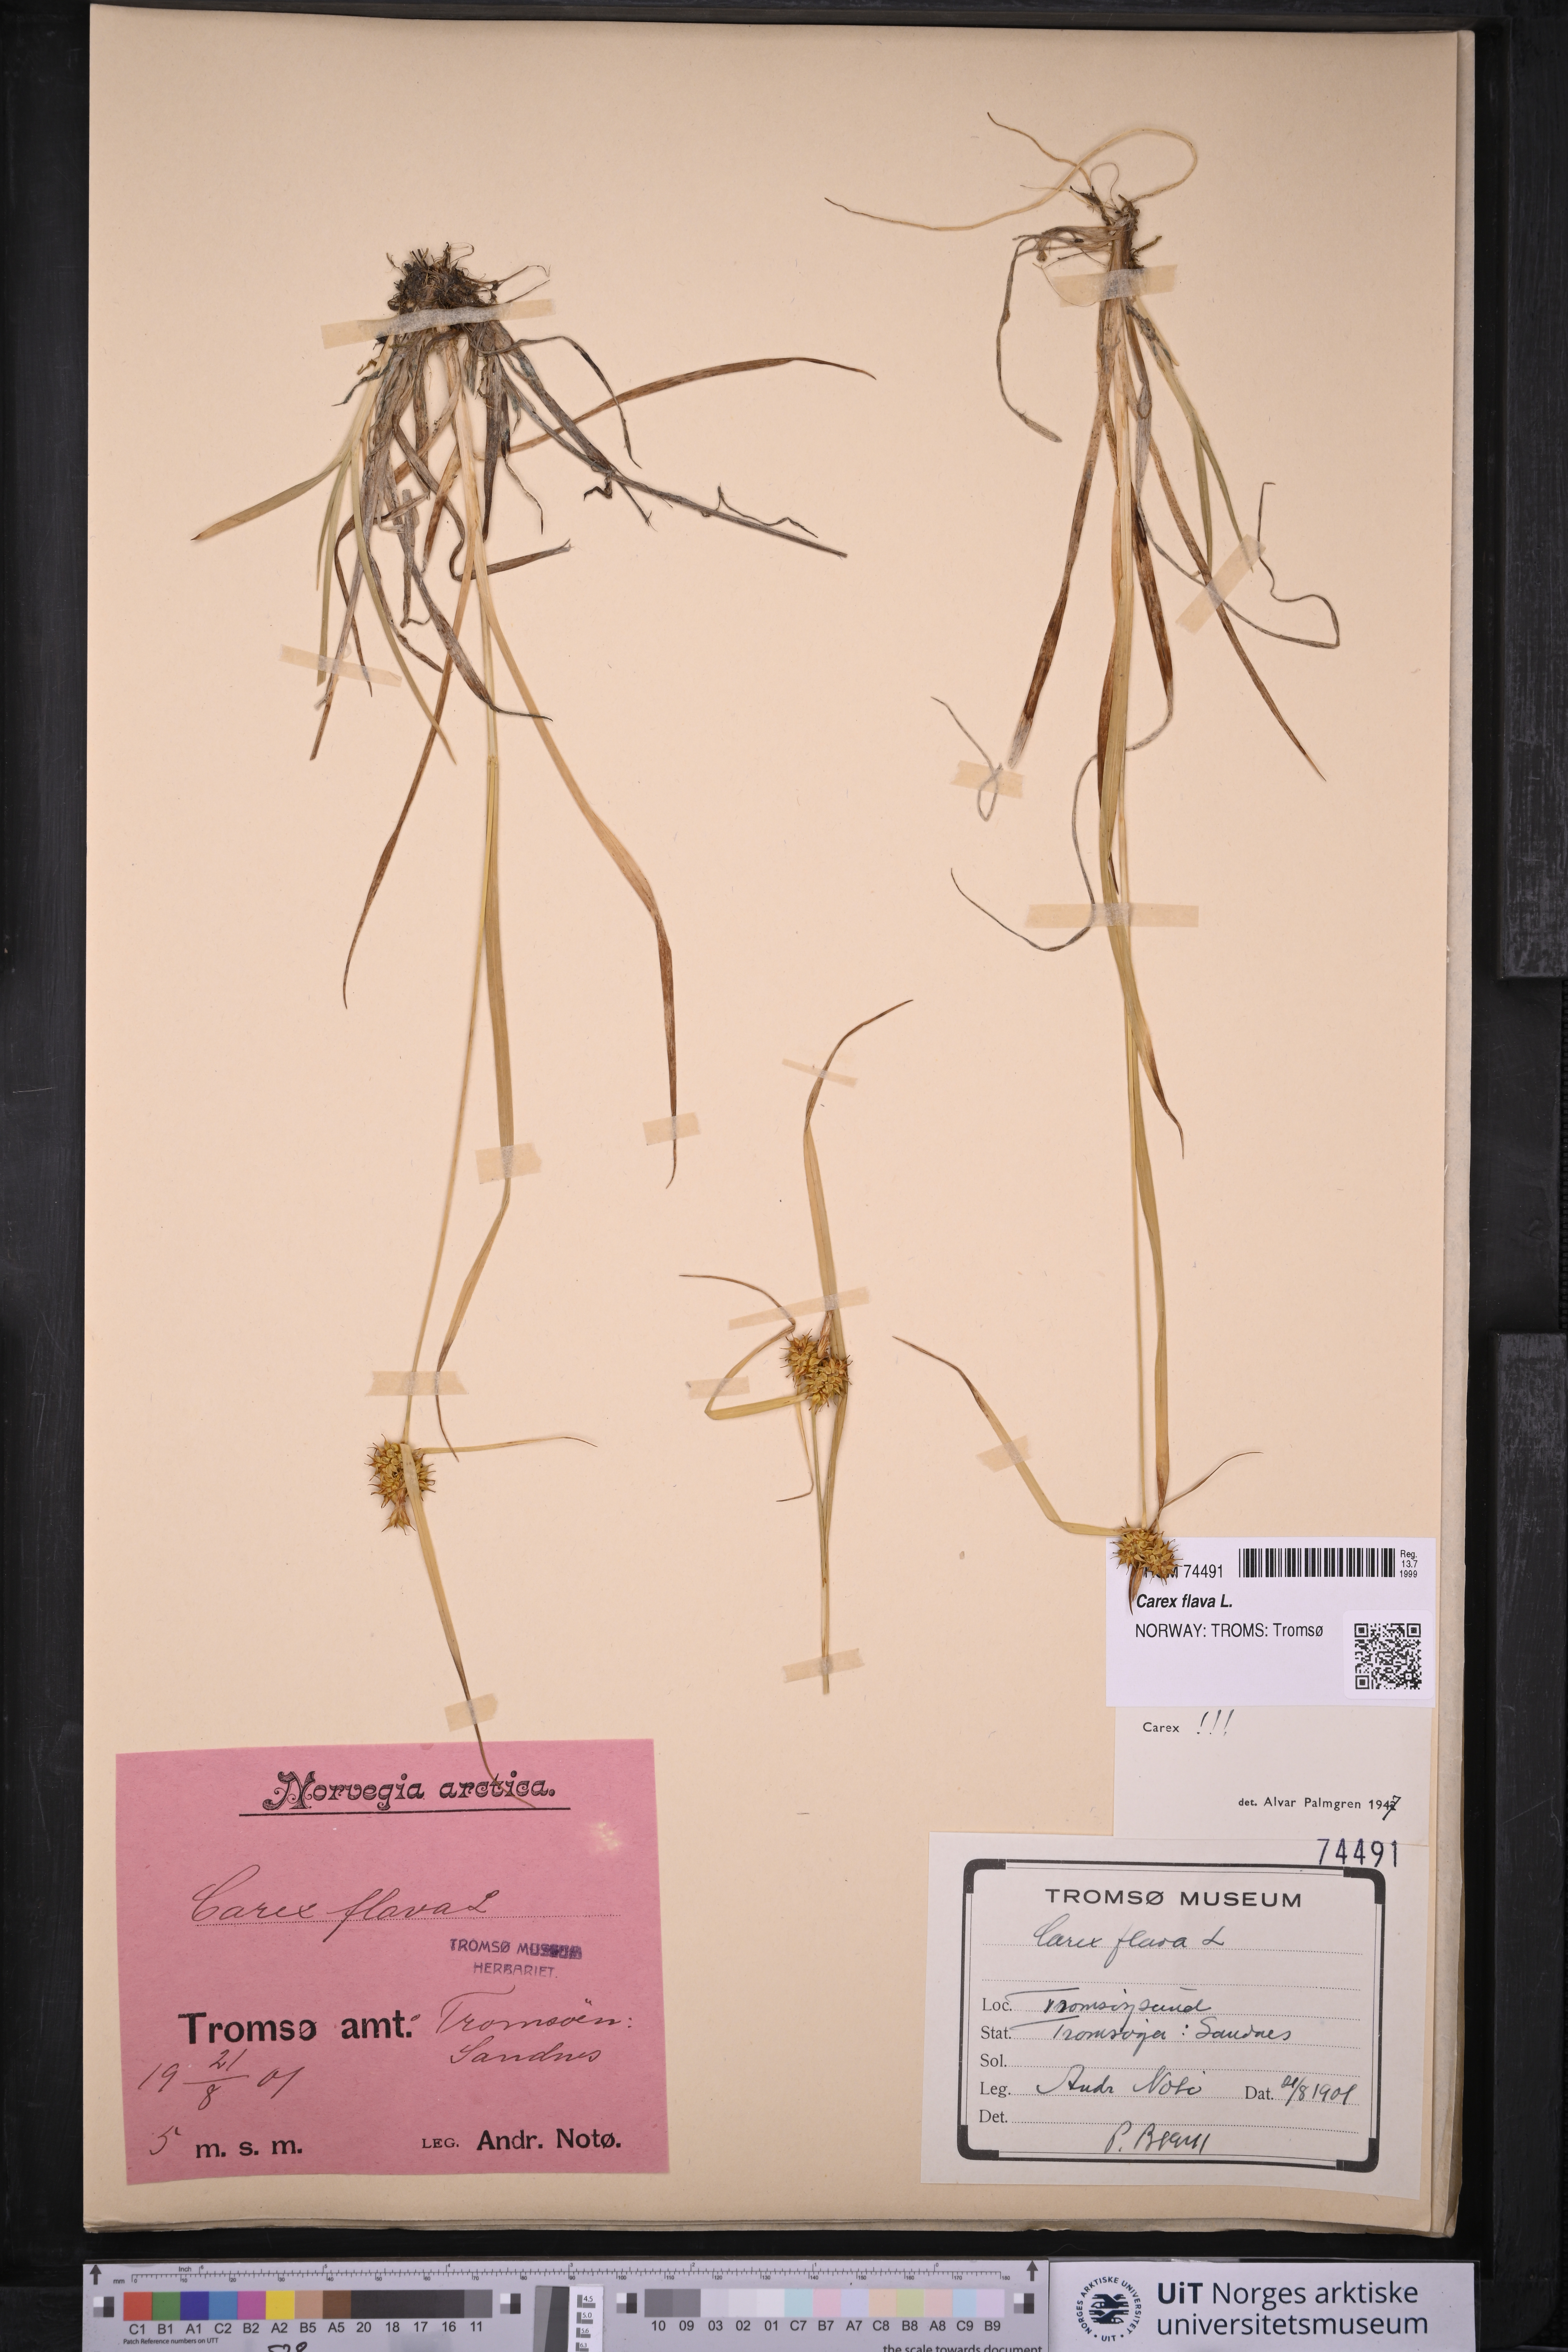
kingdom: Plantae
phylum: Tracheophyta
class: Liliopsida
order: Poales
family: Cyperaceae
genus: Carex
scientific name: Carex flava
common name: Large yellow-sedge
